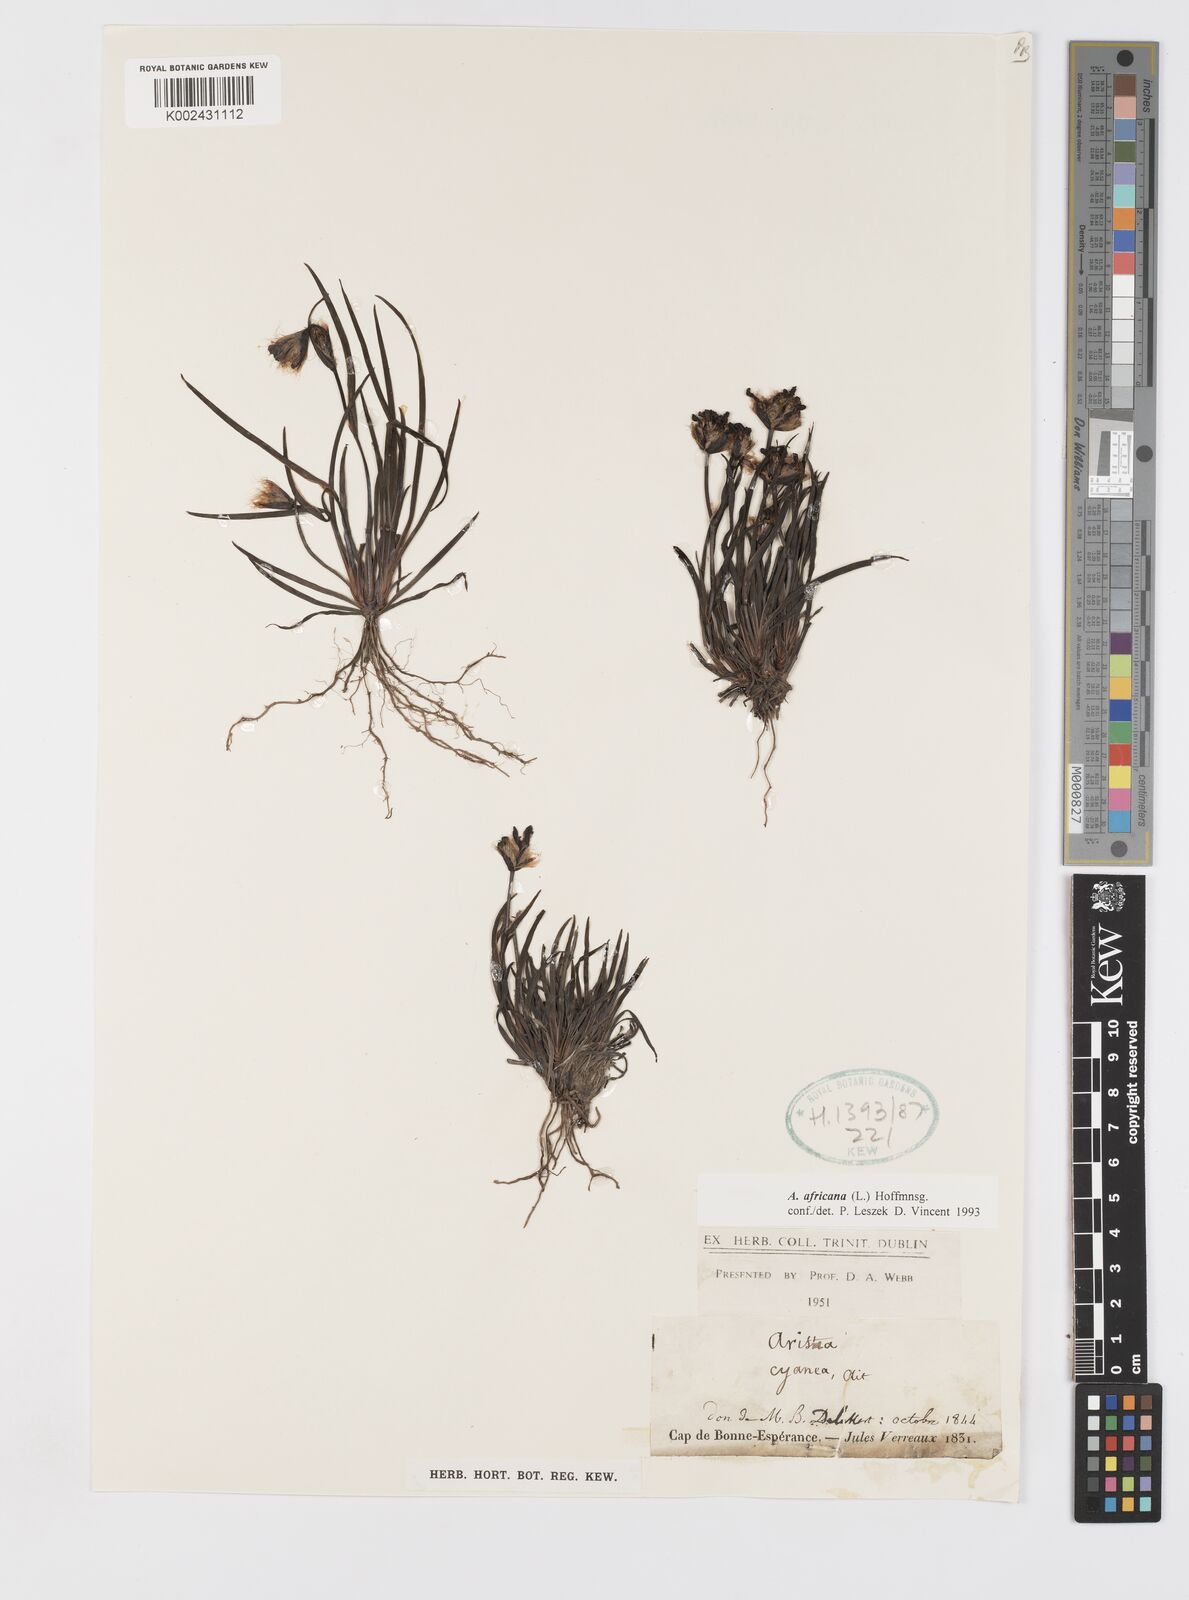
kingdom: Plantae
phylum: Tracheophyta
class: Liliopsida
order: Asparagales
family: Iridaceae
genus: Aristea
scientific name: Aristea africana
